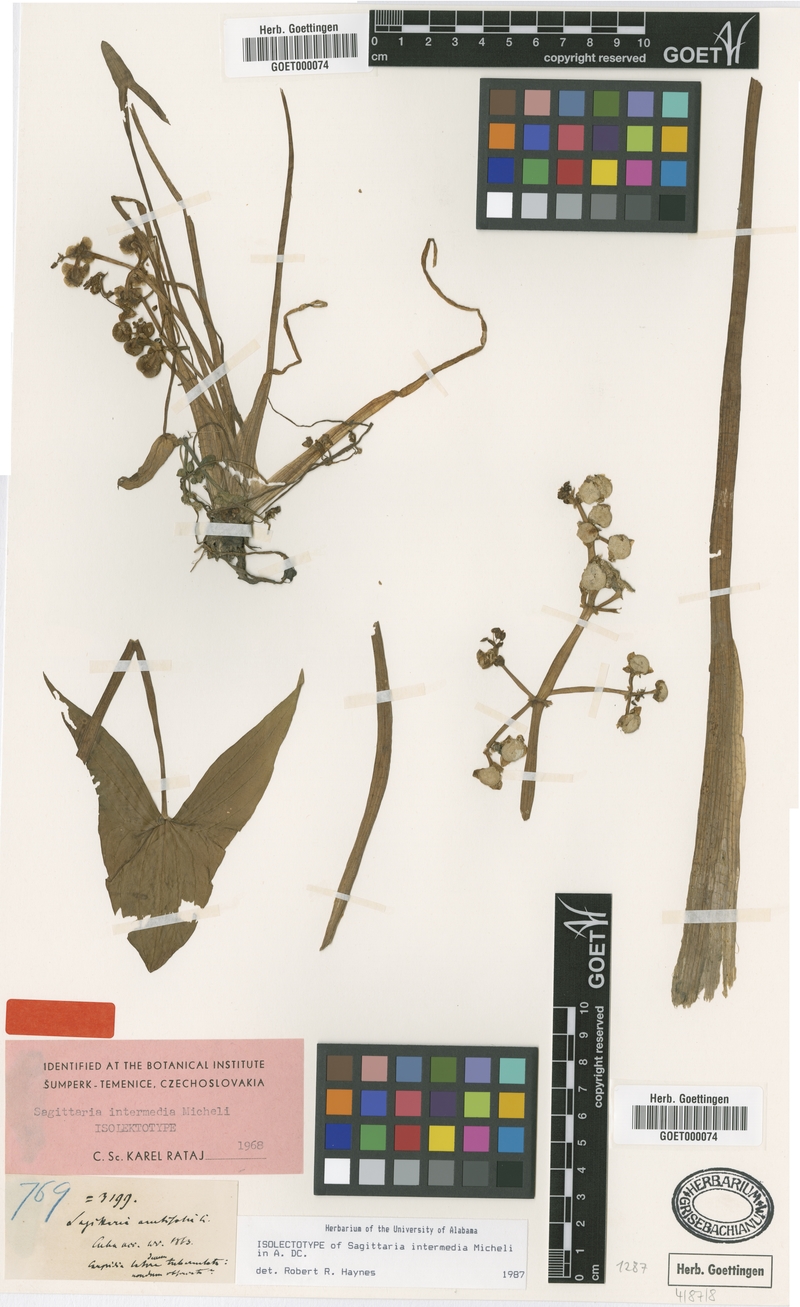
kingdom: Plantae
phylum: Tracheophyta
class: Liliopsida
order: Alismatales
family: Alismataceae
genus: Sagittaria
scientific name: Sagittaria intermedia
